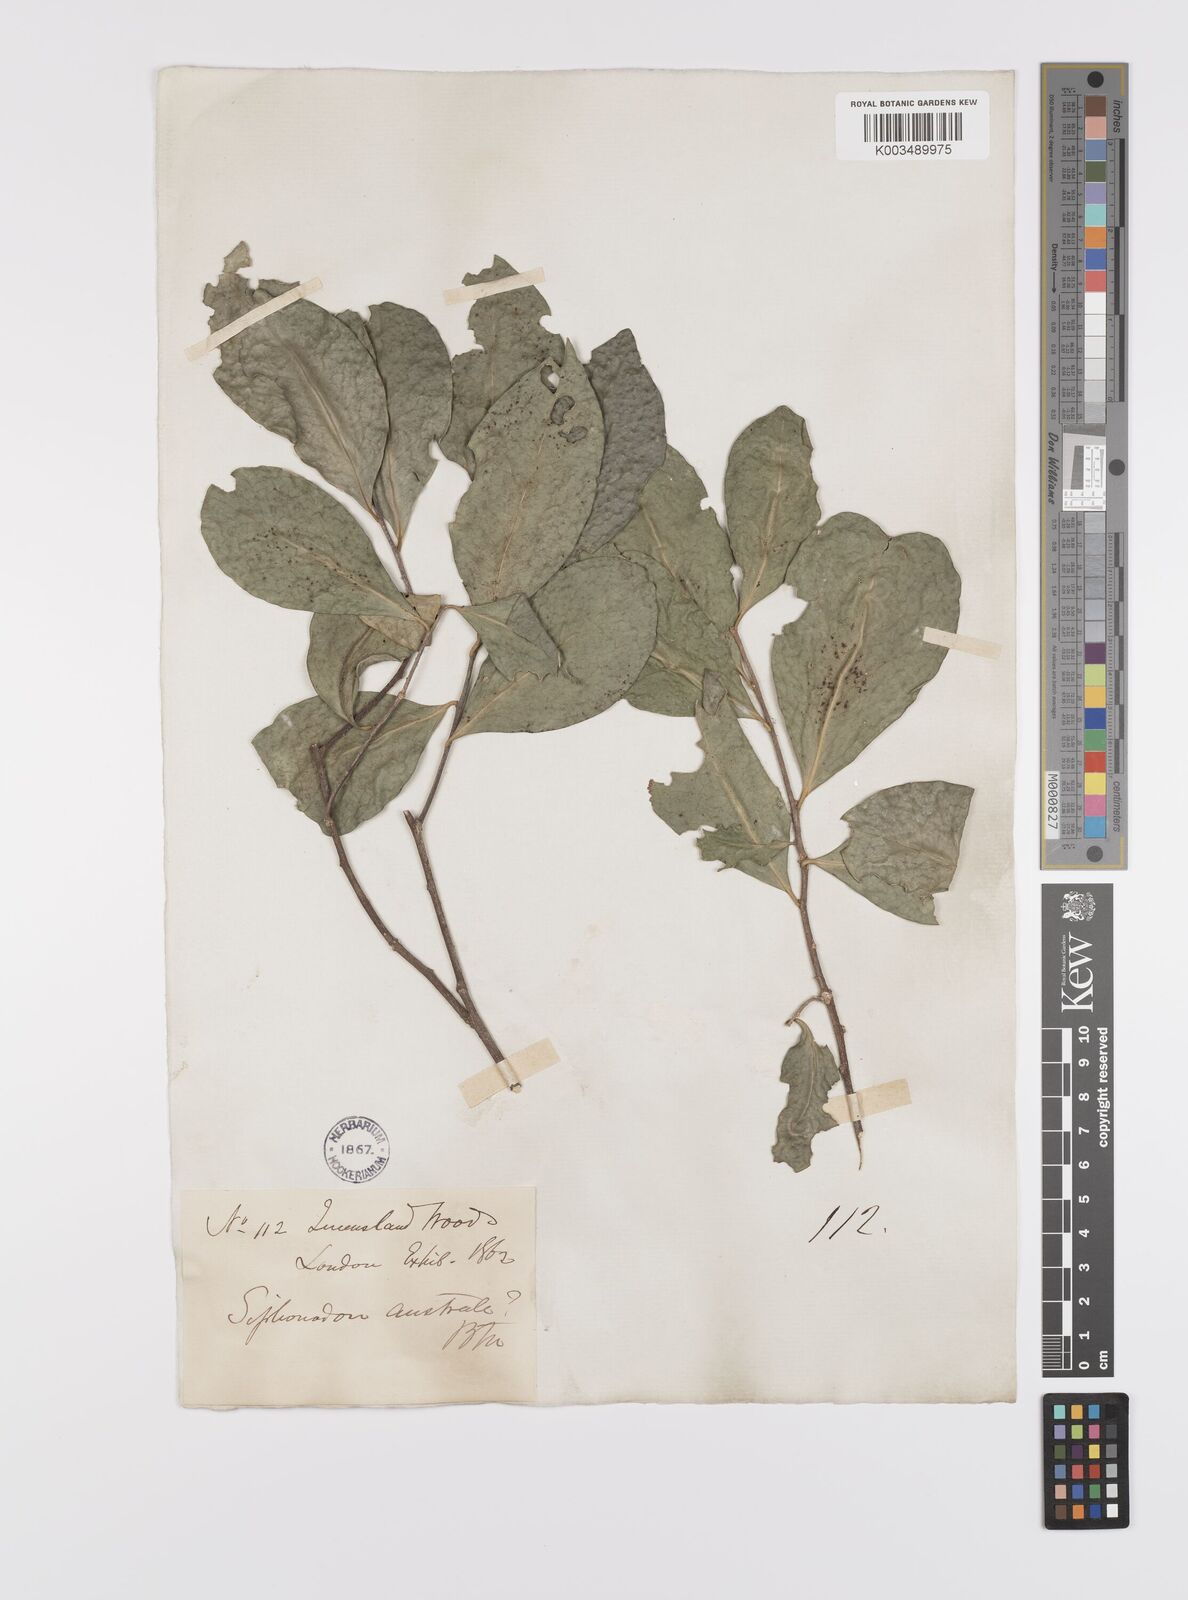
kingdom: Plantae
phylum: Tracheophyta
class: Magnoliopsida
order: Celastrales
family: Celastraceae
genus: Siphonodon
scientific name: Siphonodon australis
